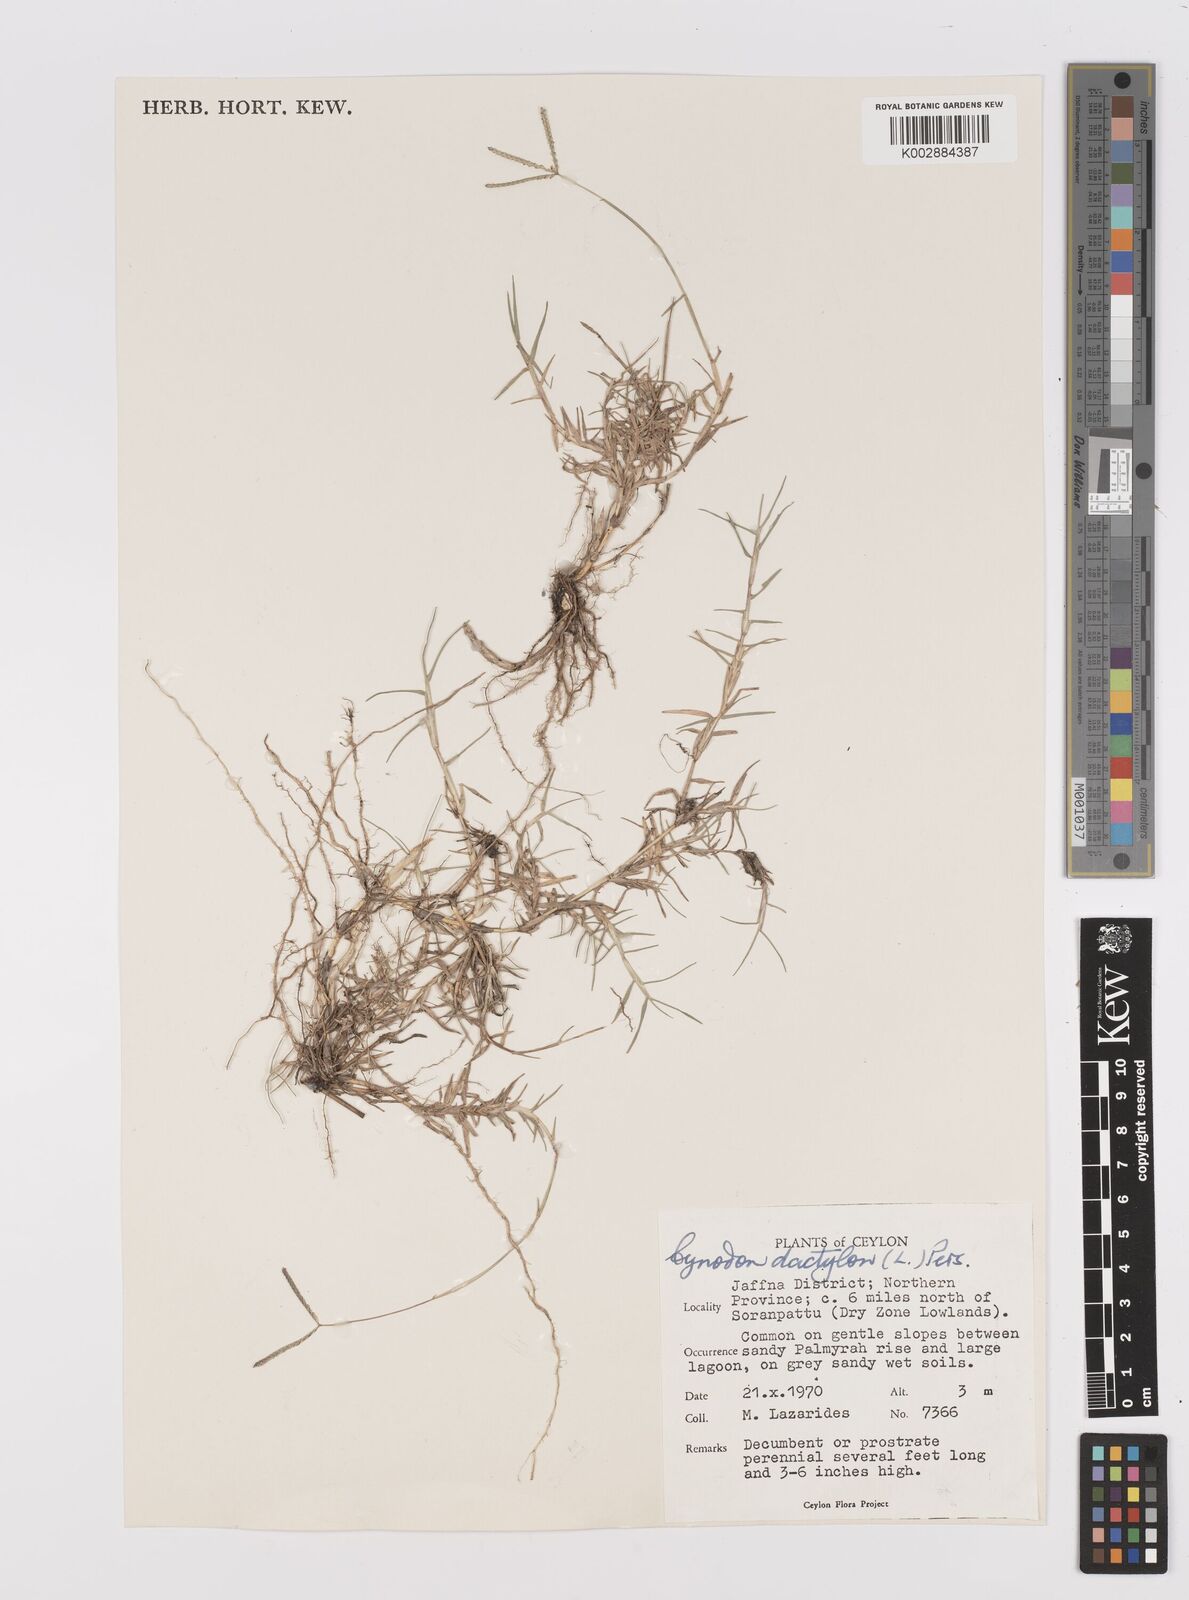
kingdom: Plantae
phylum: Tracheophyta
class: Liliopsida
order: Poales
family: Poaceae
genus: Cynodon
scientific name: Cynodon dactylon
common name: Bermuda grass
